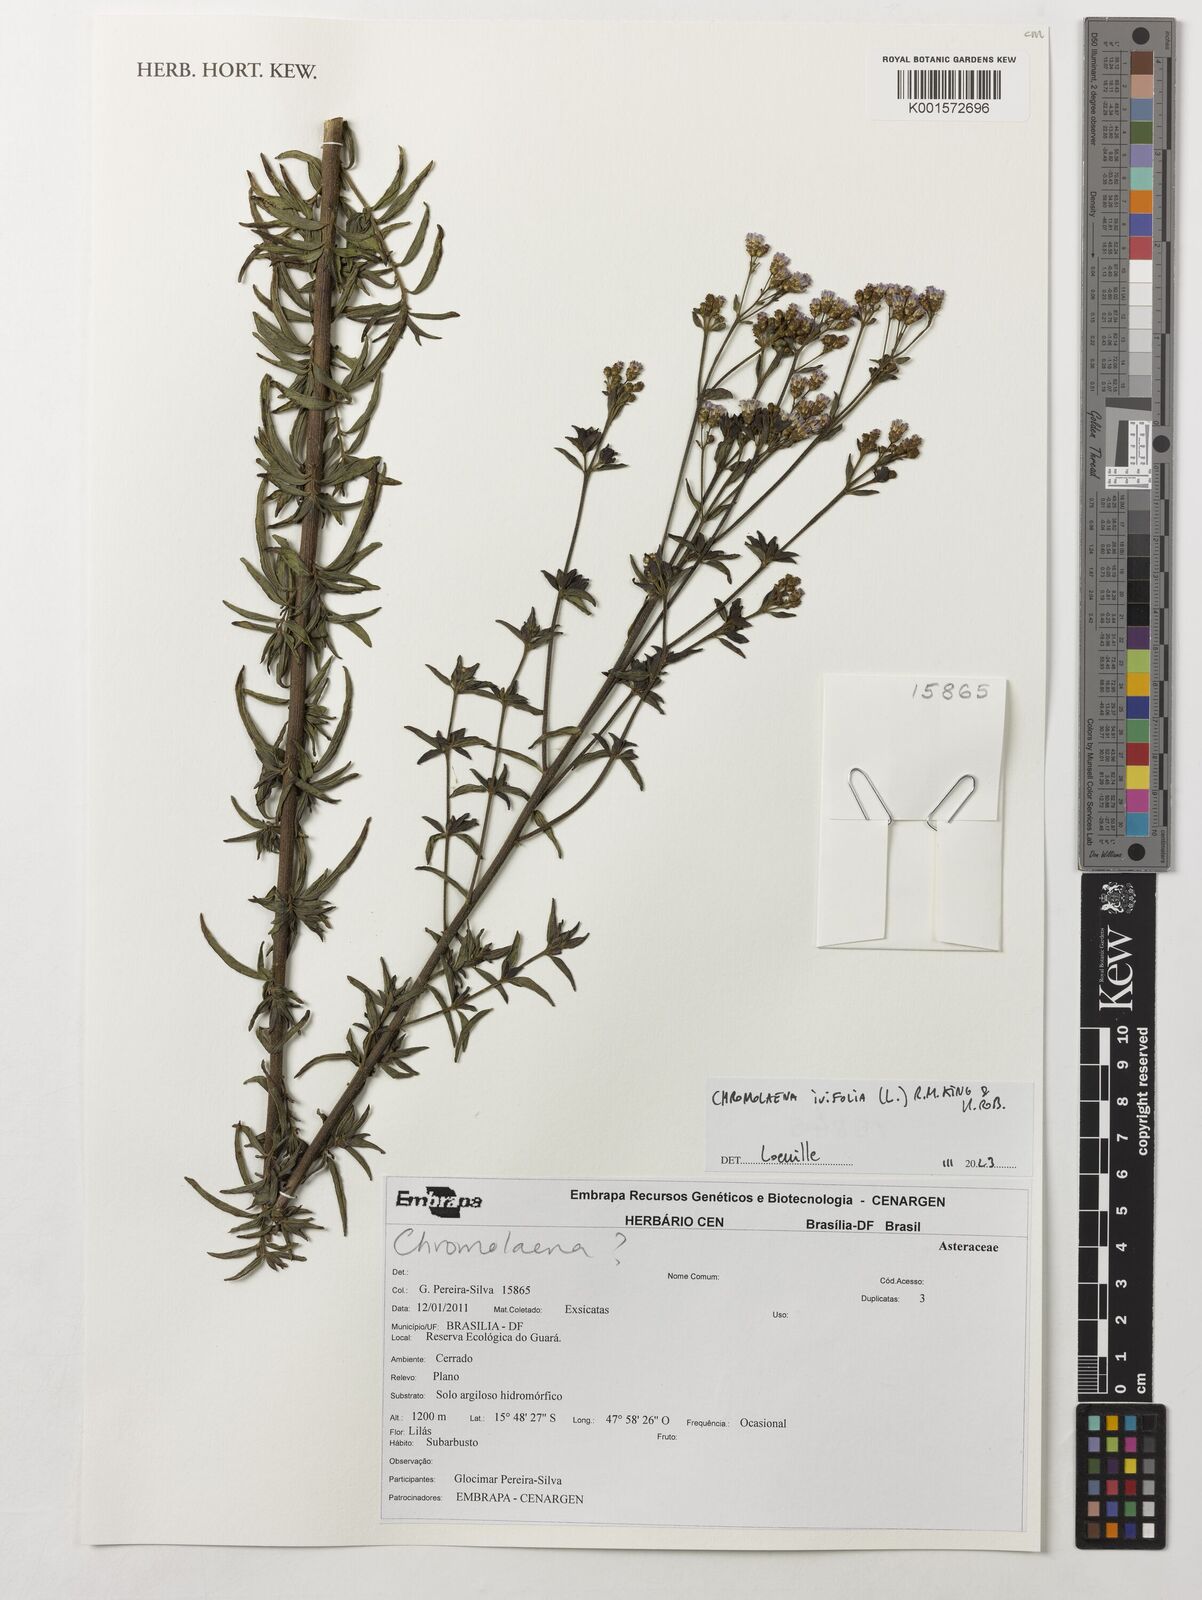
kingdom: Plantae
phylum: Tracheophyta
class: Magnoliopsida
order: Asterales
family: Asteraceae
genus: Chromolaena
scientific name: Chromolaena ivifolia
